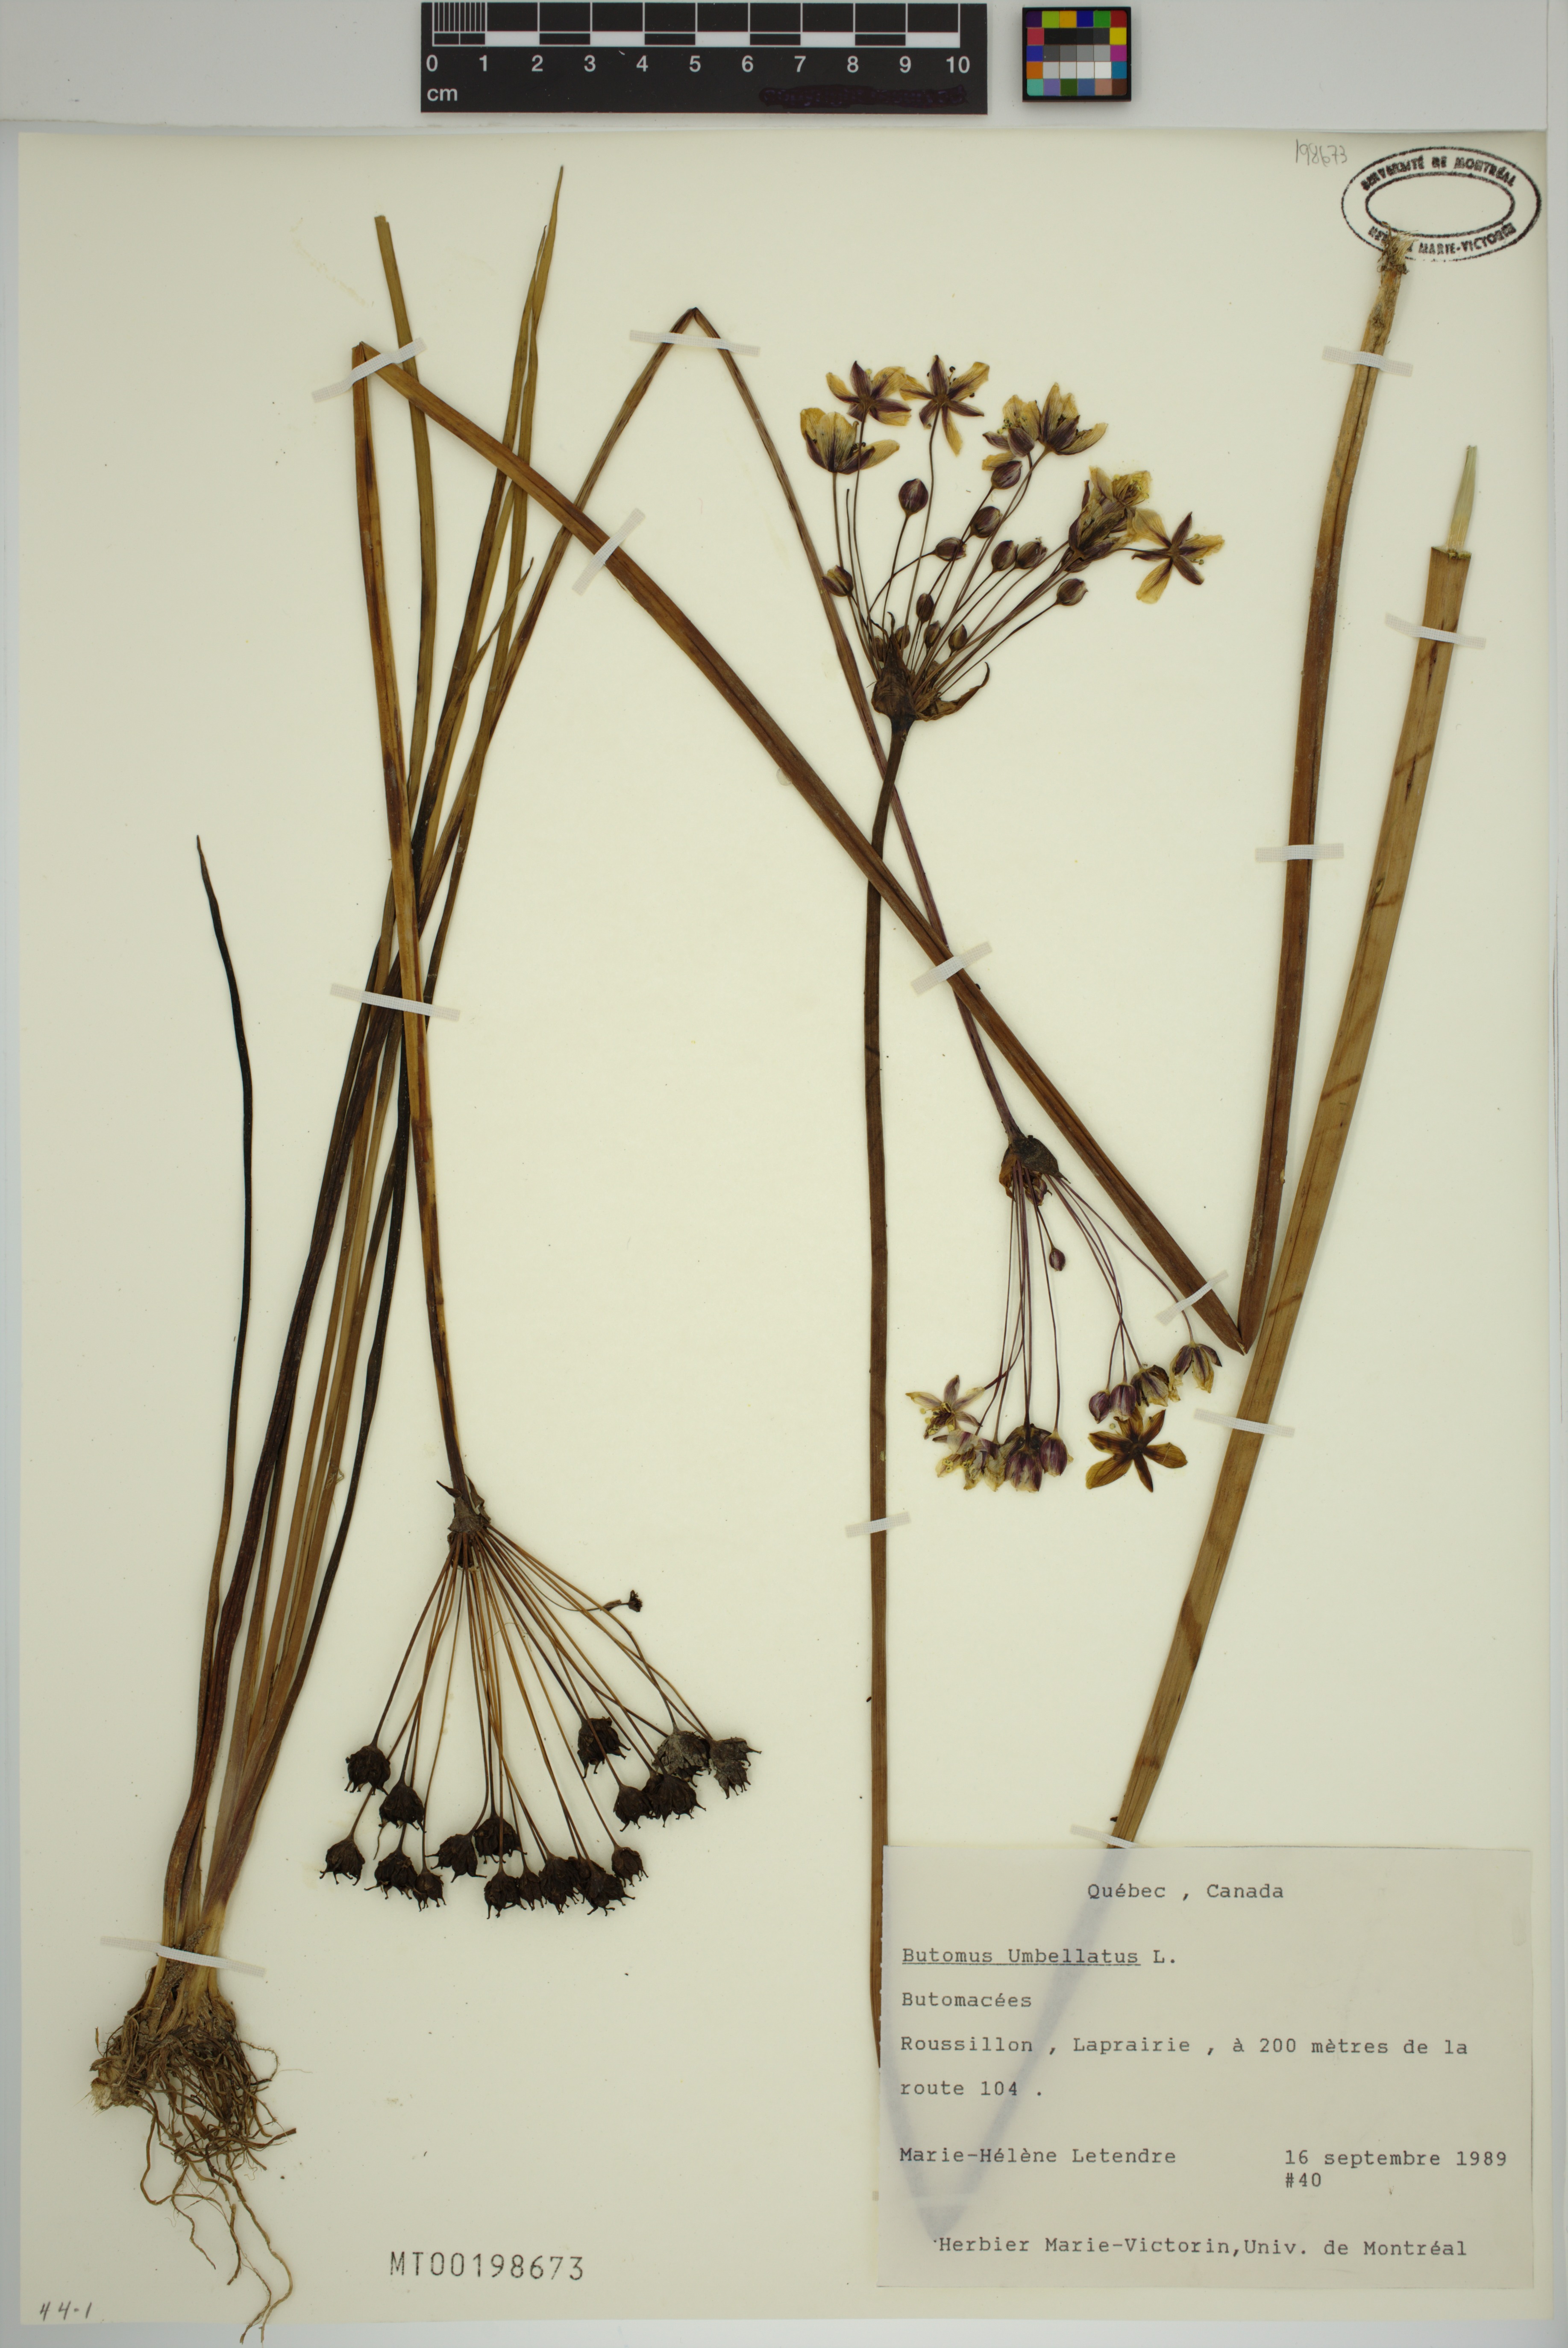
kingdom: Plantae
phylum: Tracheophyta
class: Liliopsida
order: Alismatales
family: Butomaceae
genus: Butomus
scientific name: Butomus umbellatus
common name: Flowering-rush
